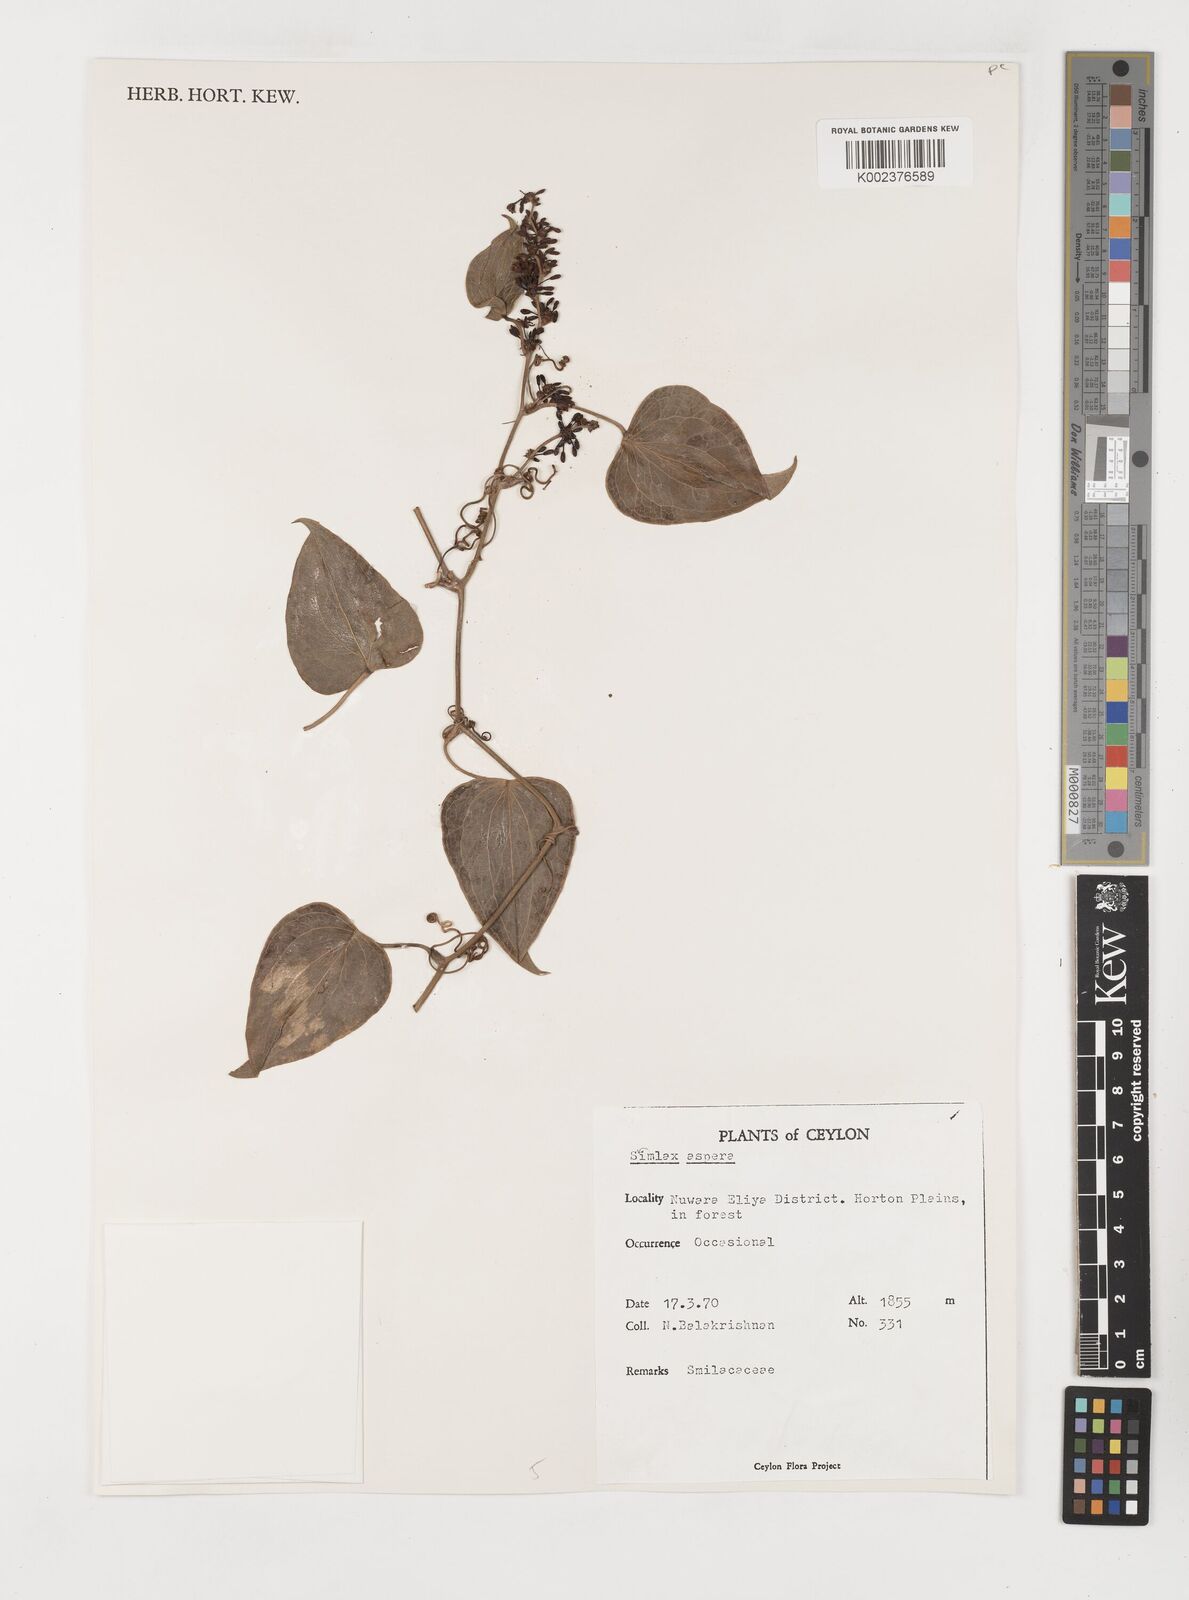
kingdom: Plantae
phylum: Tracheophyta
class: Liliopsida
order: Liliales
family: Smilacaceae
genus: Smilax
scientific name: Smilax aspera
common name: Common smilax
